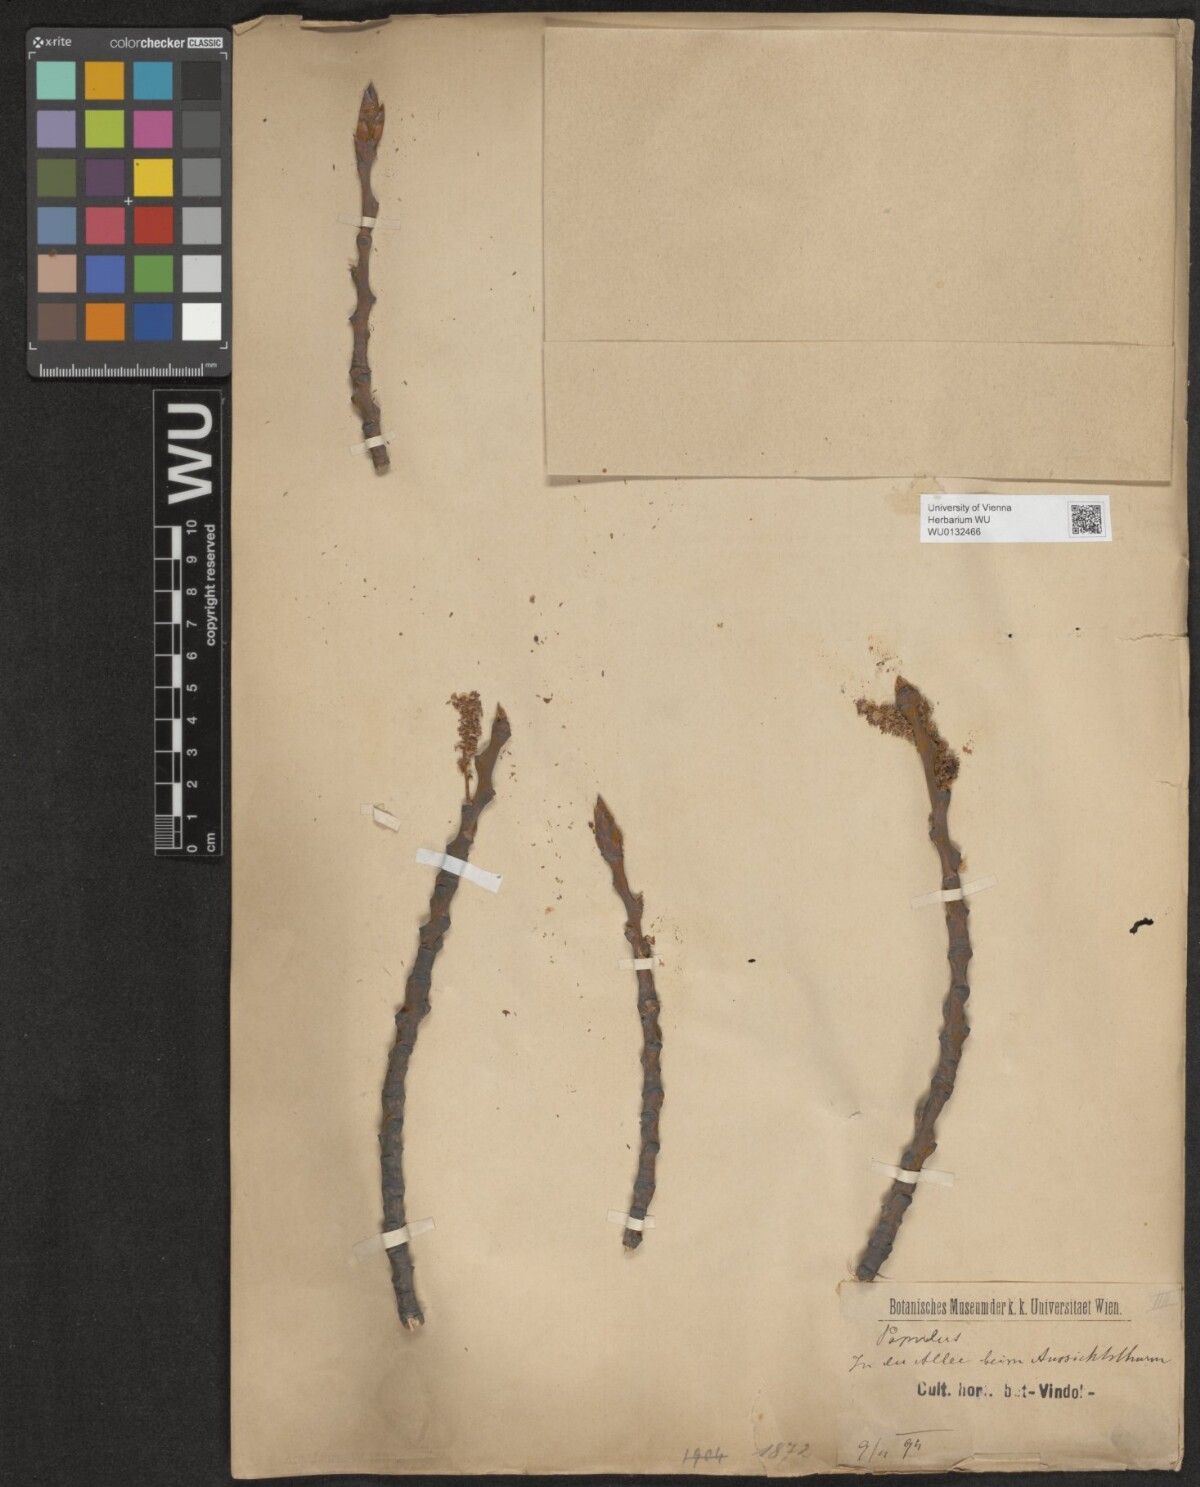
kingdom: Plantae
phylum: Tracheophyta
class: Magnoliopsida
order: Malpighiales
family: Salicaceae
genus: Populus
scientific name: Populus
